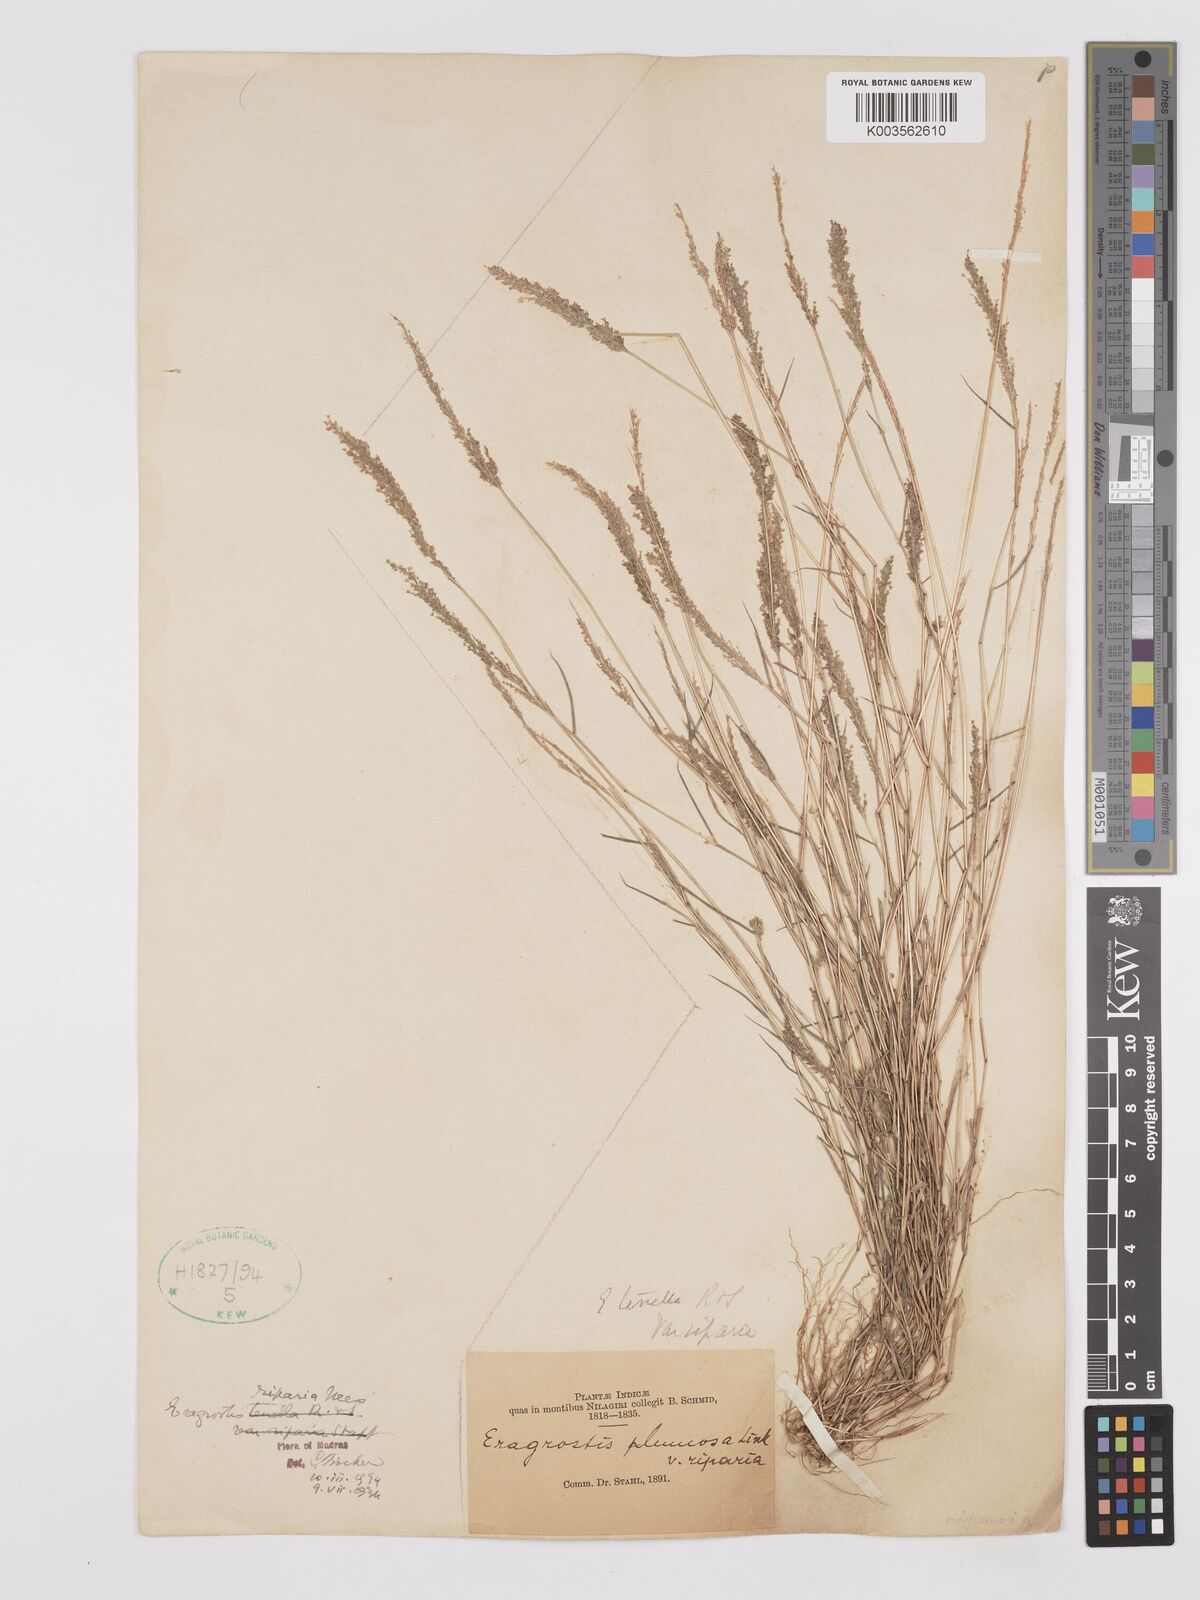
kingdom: Plantae
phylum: Tracheophyta
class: Liliopsida
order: Poales
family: Poaceae
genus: Eragrostis
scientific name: Eragrostis tenella
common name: Japanese lovegrass
